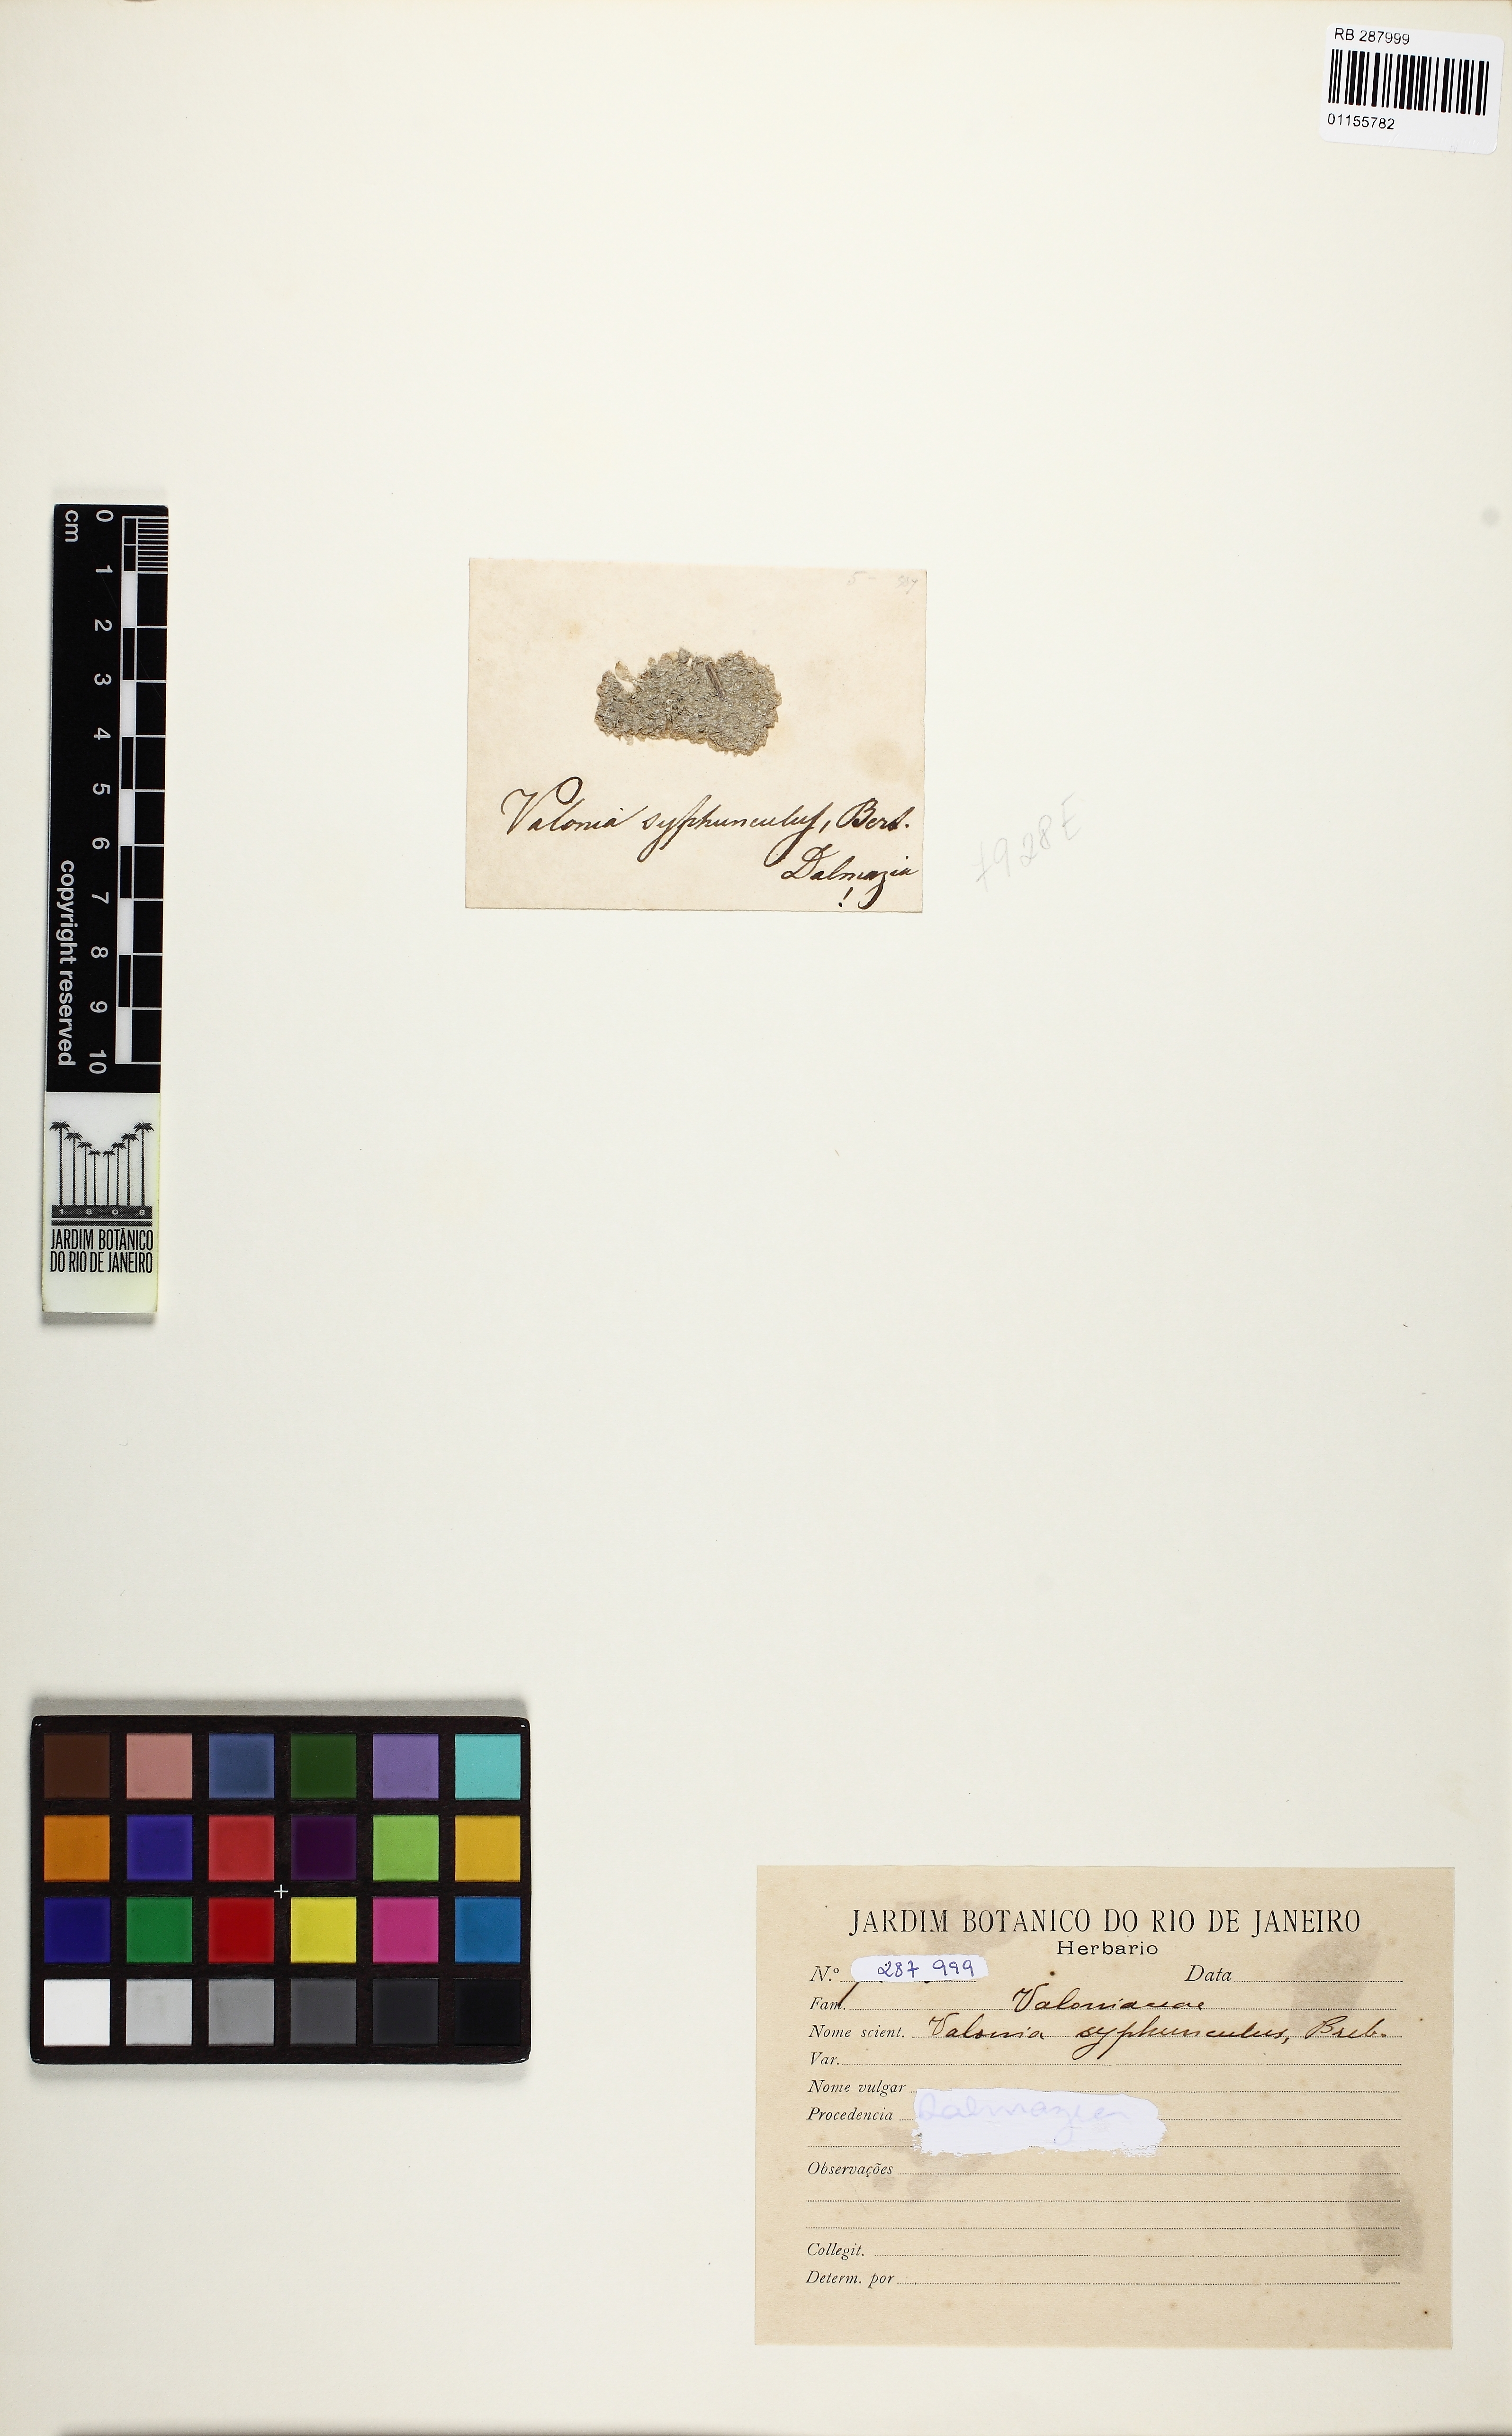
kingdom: Plantae
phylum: Chlorophyta
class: Ulvophyceae
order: Siphonocladales
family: Valoniaceae
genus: Valonia
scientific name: Valonia
